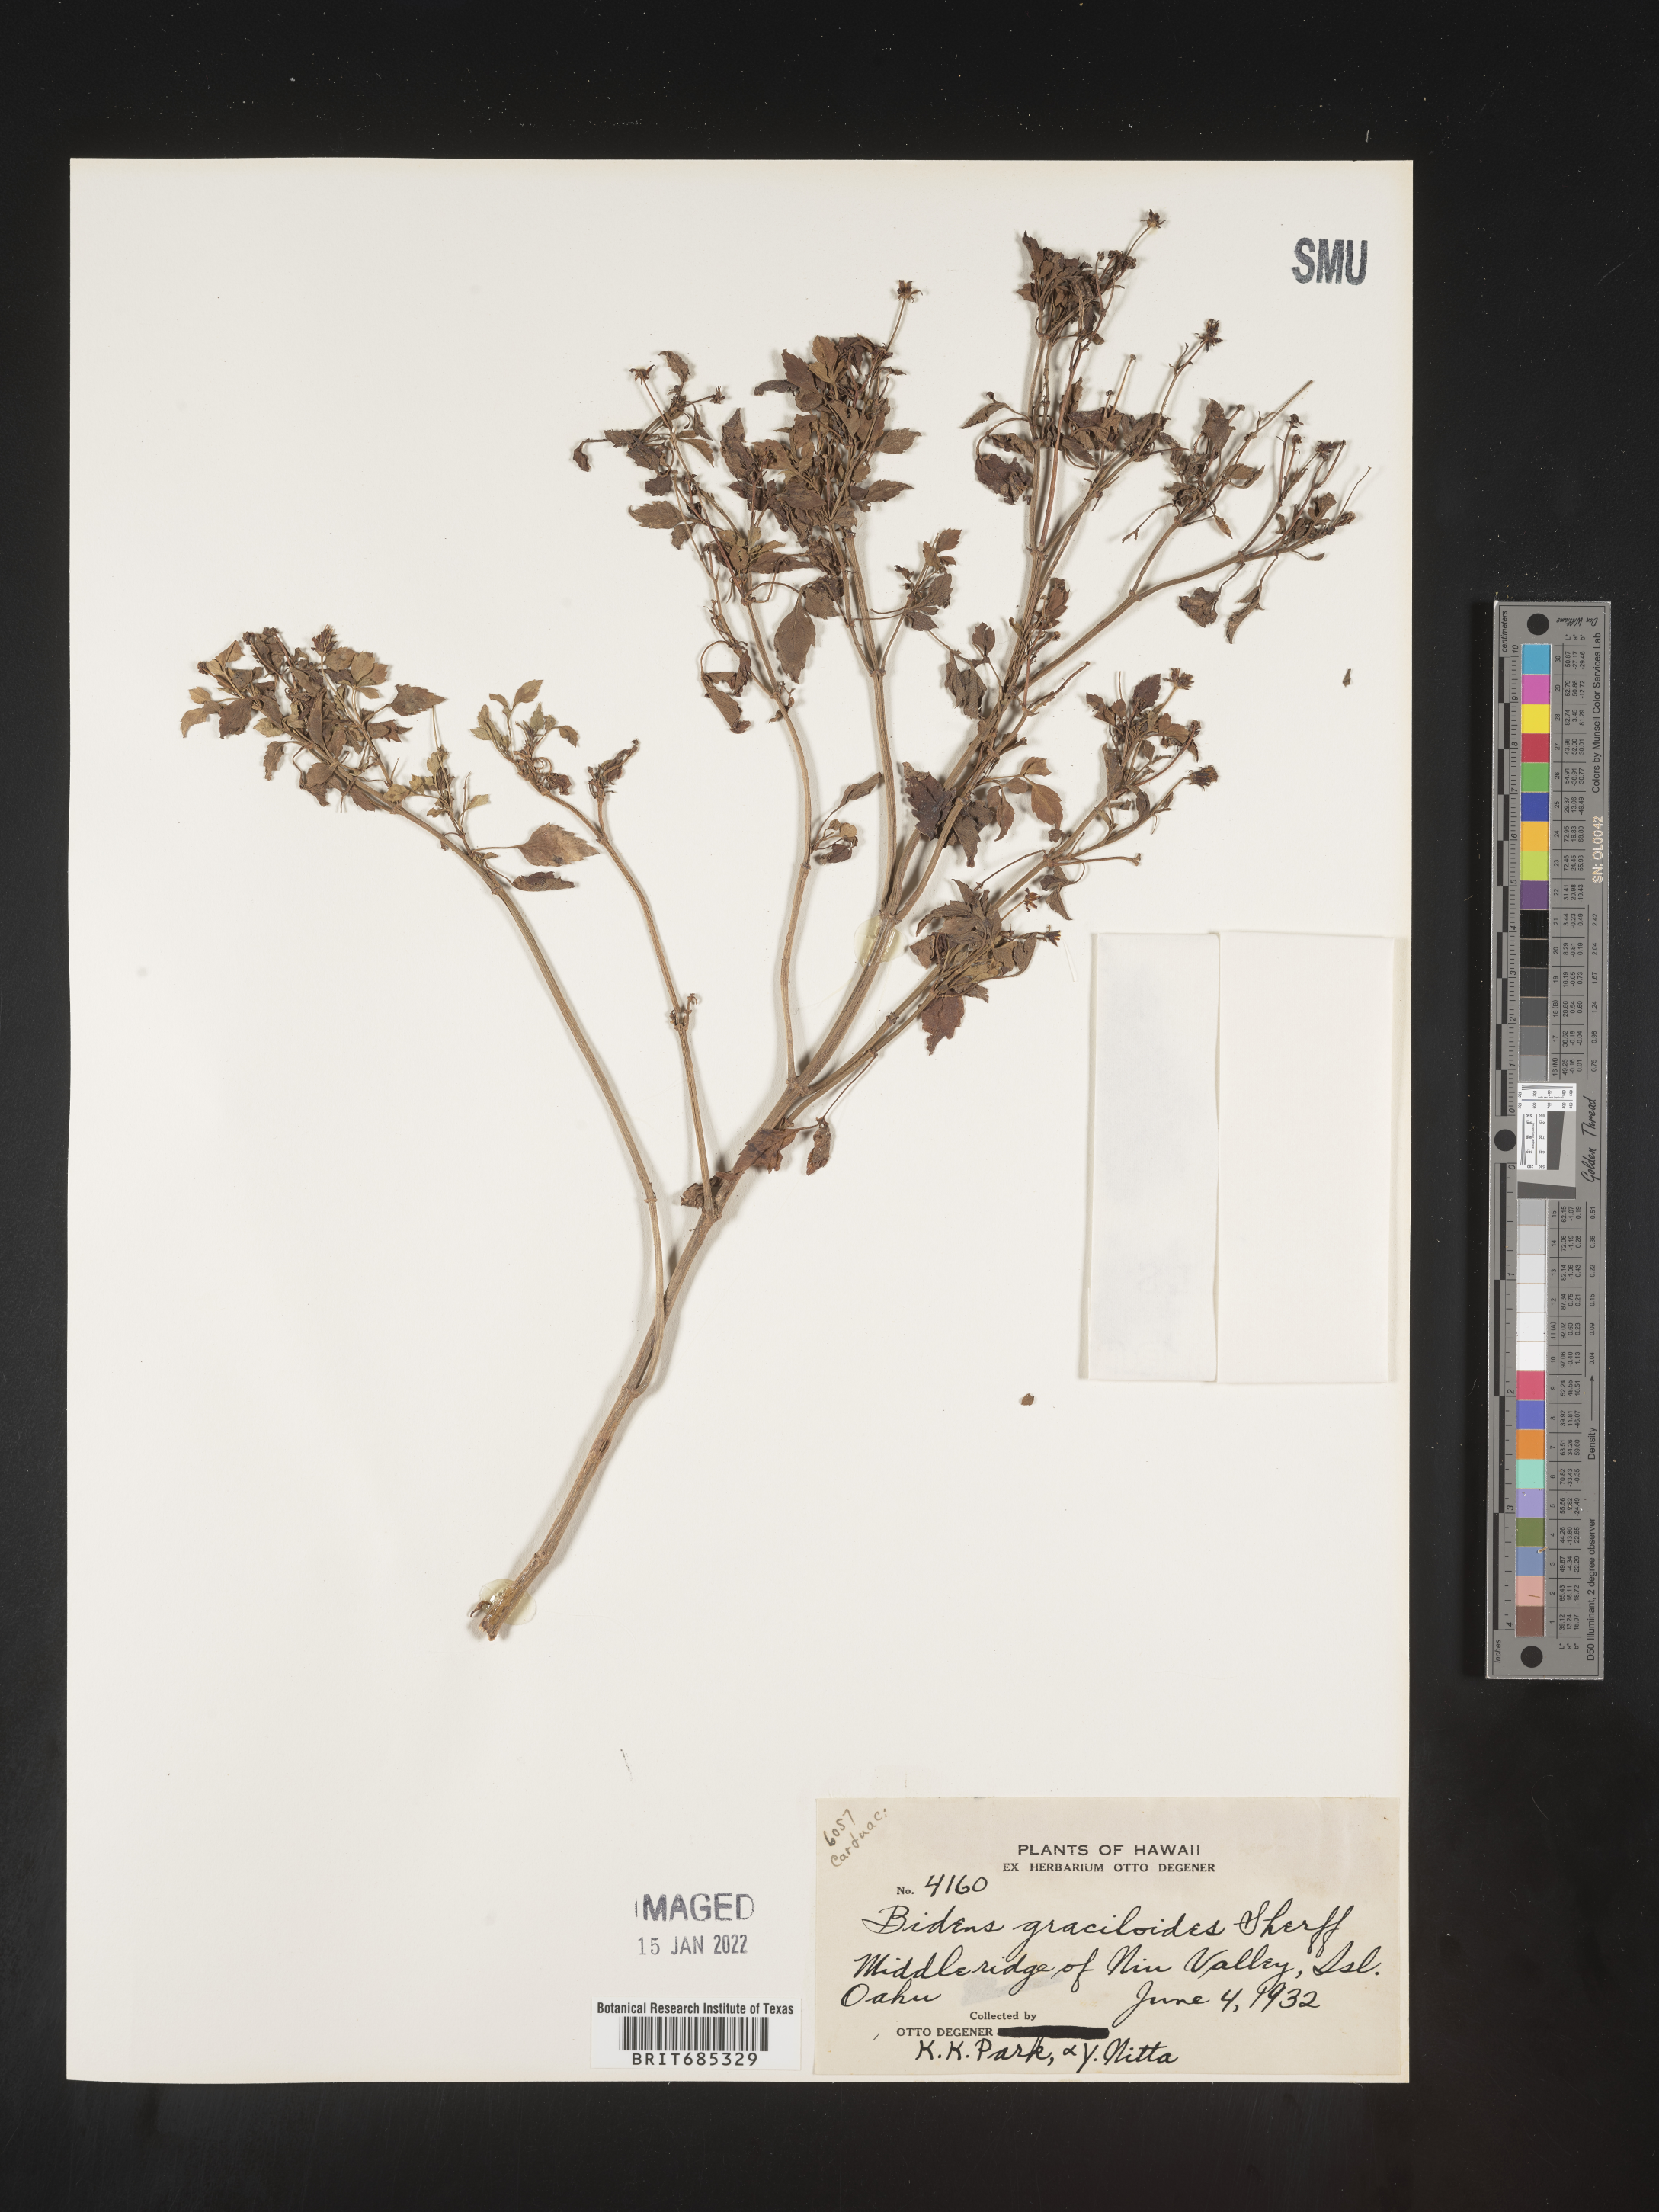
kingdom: Plantae
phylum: Tracheophyta
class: Magnoliopsida
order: Asterales
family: Asteraceae
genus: Bidens
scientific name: Bidens
